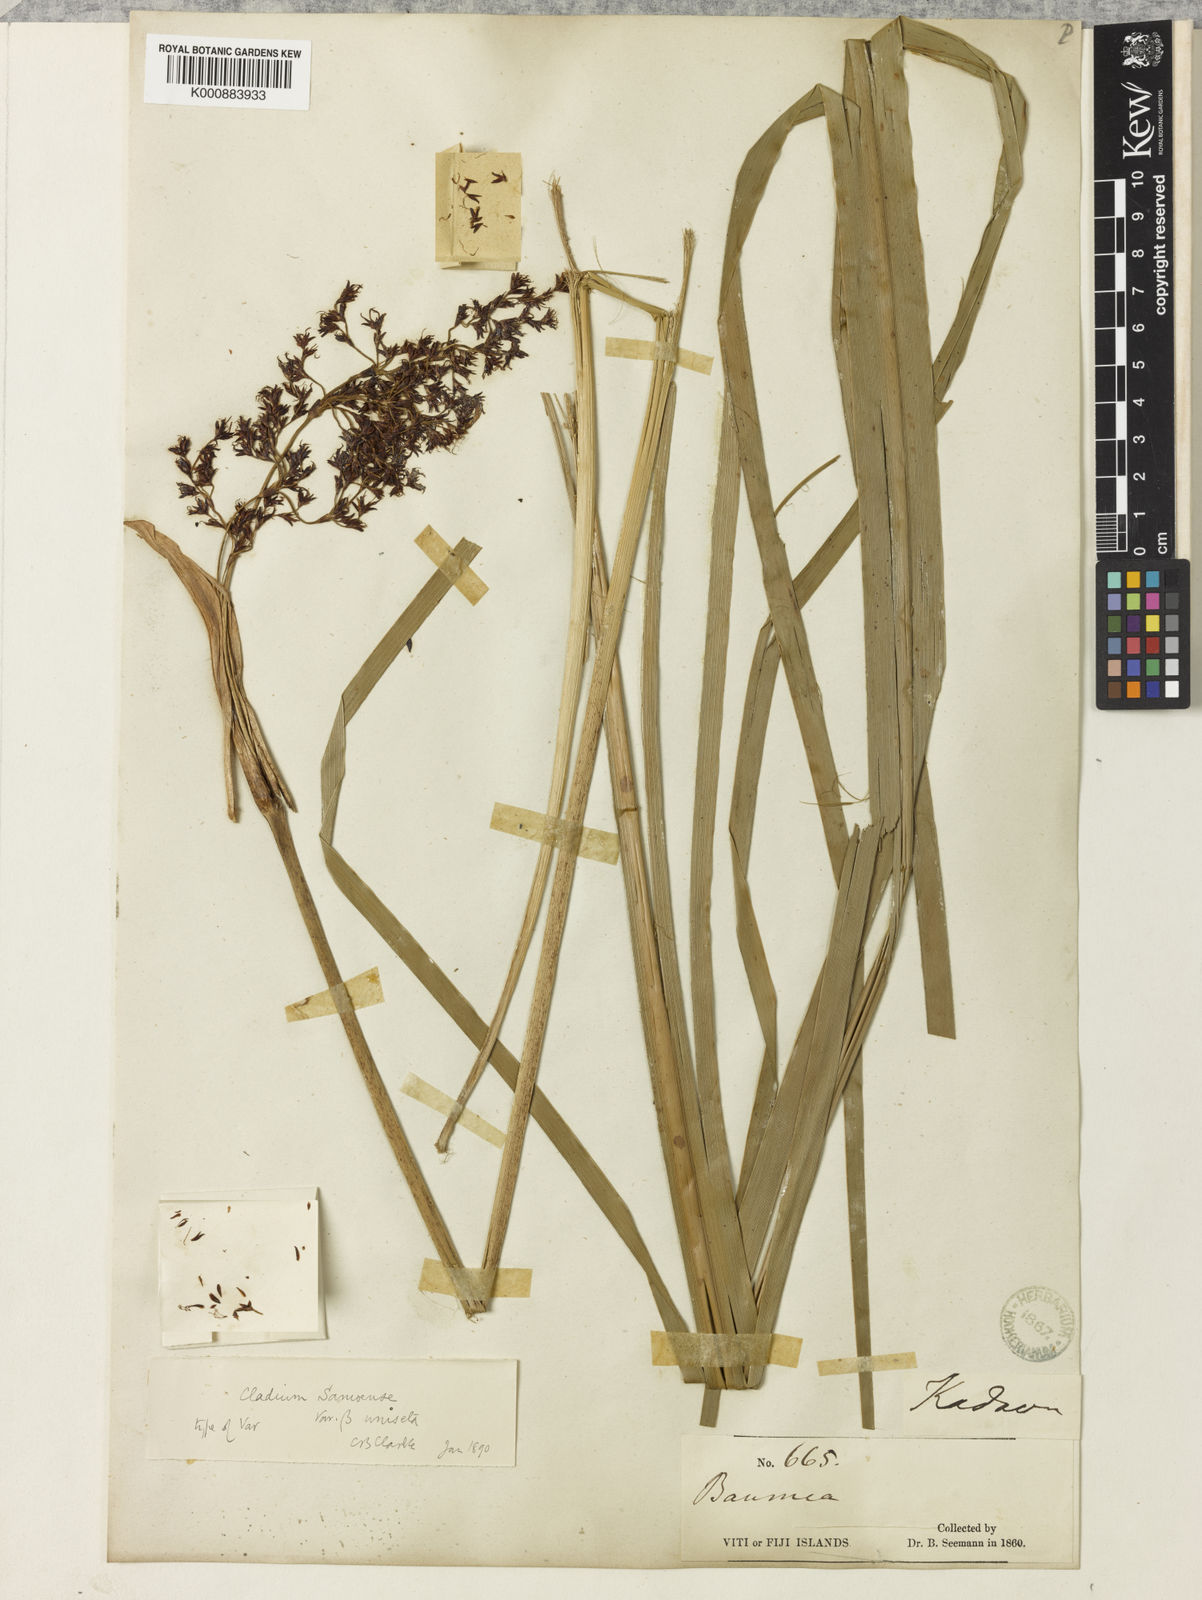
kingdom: Plantae
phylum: Tracheophyta
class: Liliopsida
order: Poales
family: Cyperaceae
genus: Machaerina
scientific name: Machaerina falcata
